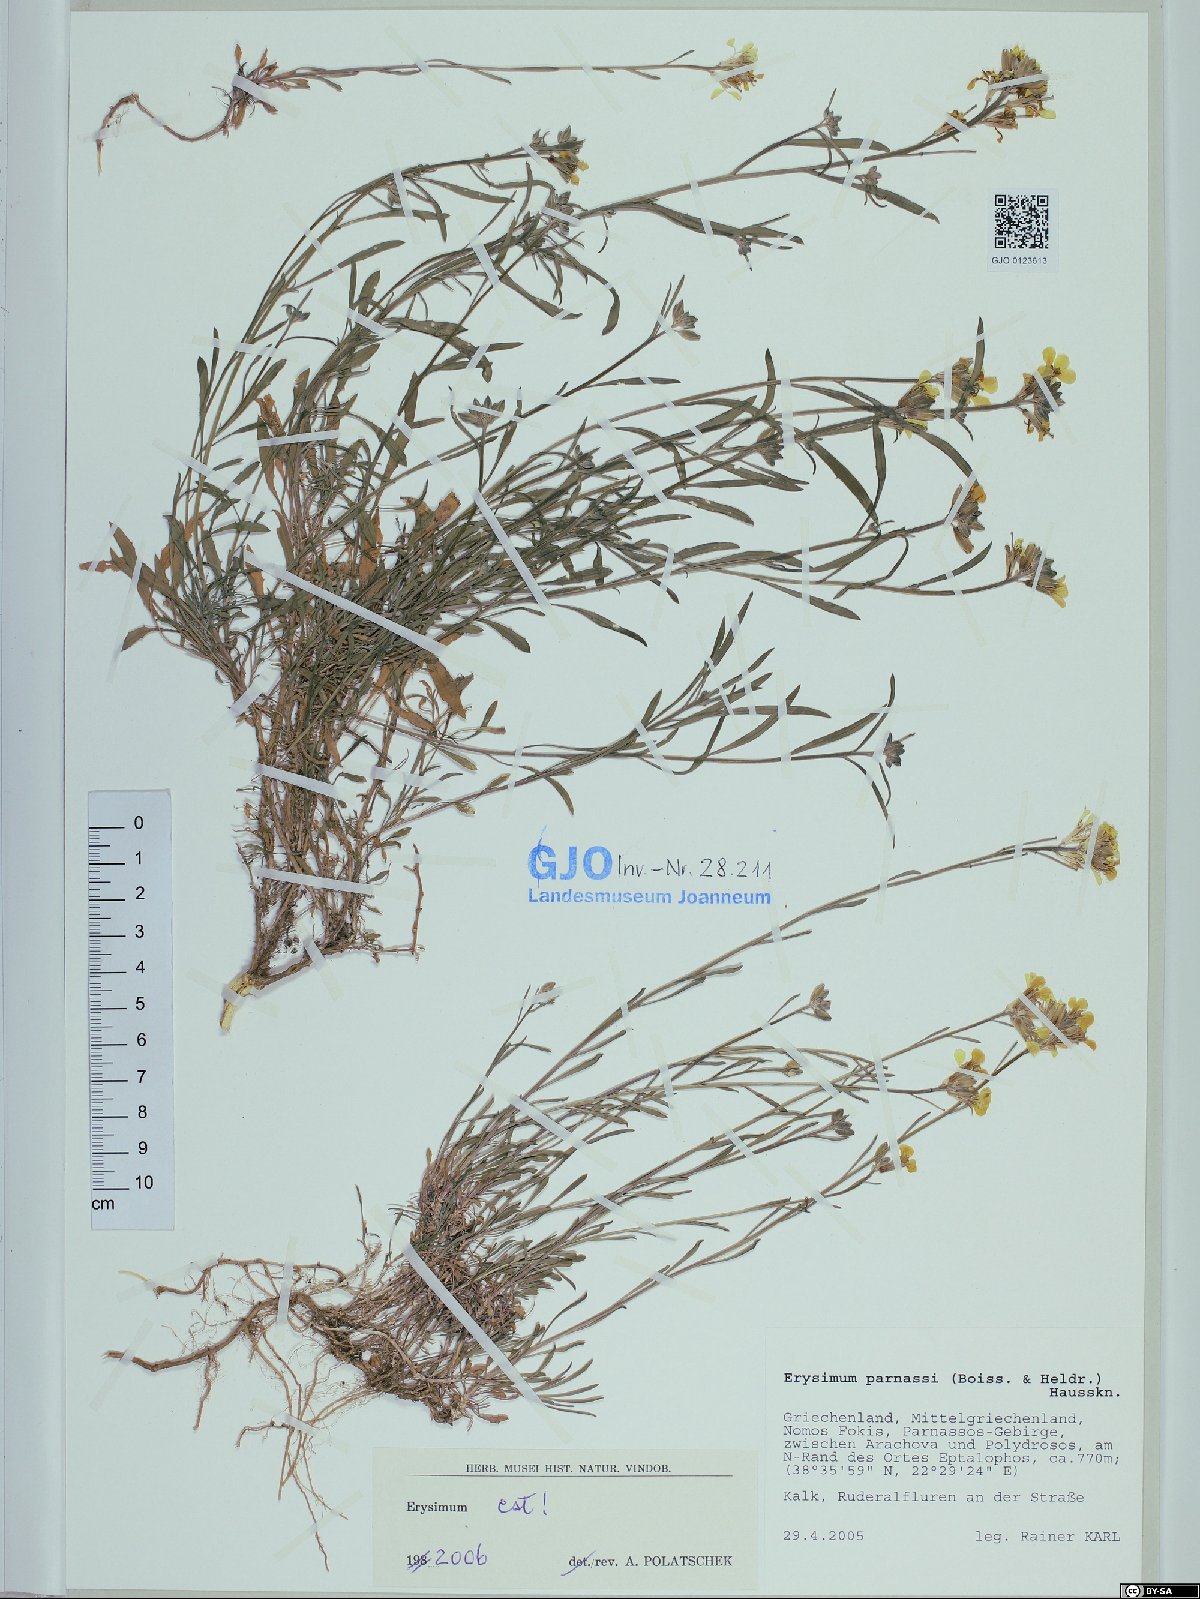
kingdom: Plantae
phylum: Tracheophyta
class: Magnoliopsida
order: Brassicales
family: Brassicaceae
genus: Erysimum
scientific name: Erysimum parnassi
